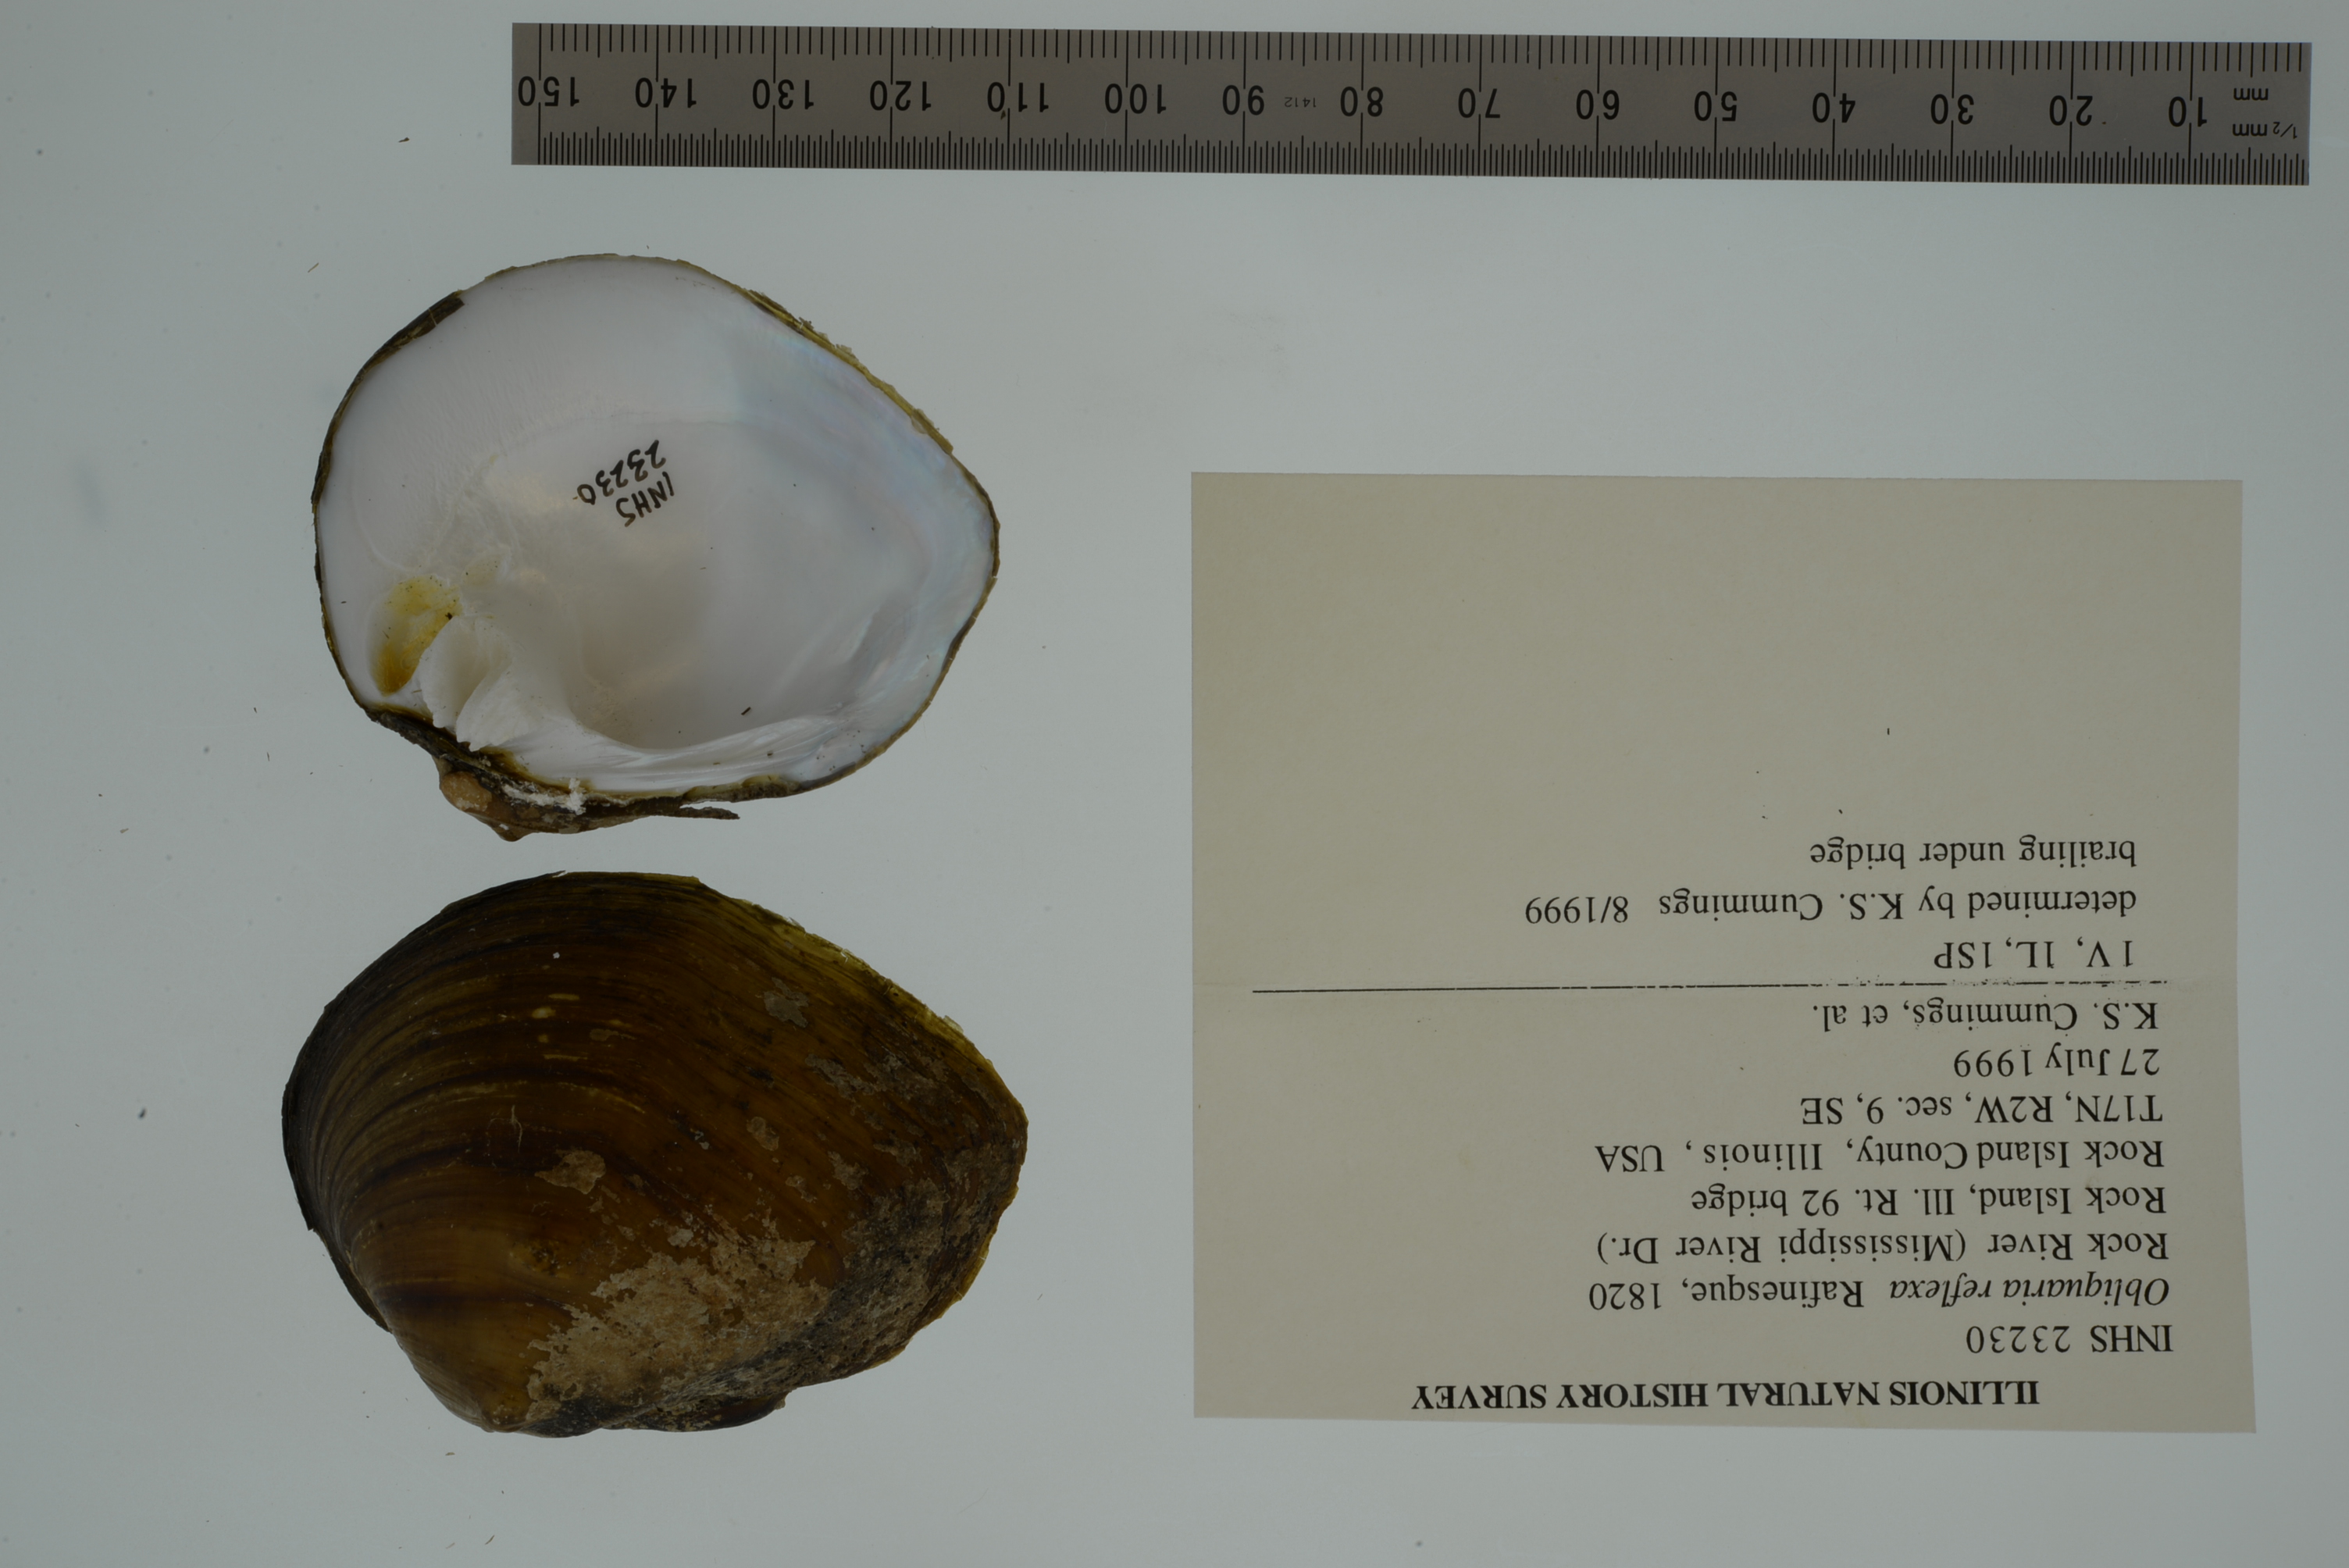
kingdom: Animalia
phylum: Mollusca
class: Bivalvia
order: Unionida
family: Unionidae
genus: Obliquaria
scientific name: Obliquaria reflexa
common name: Threehorn wartyback
